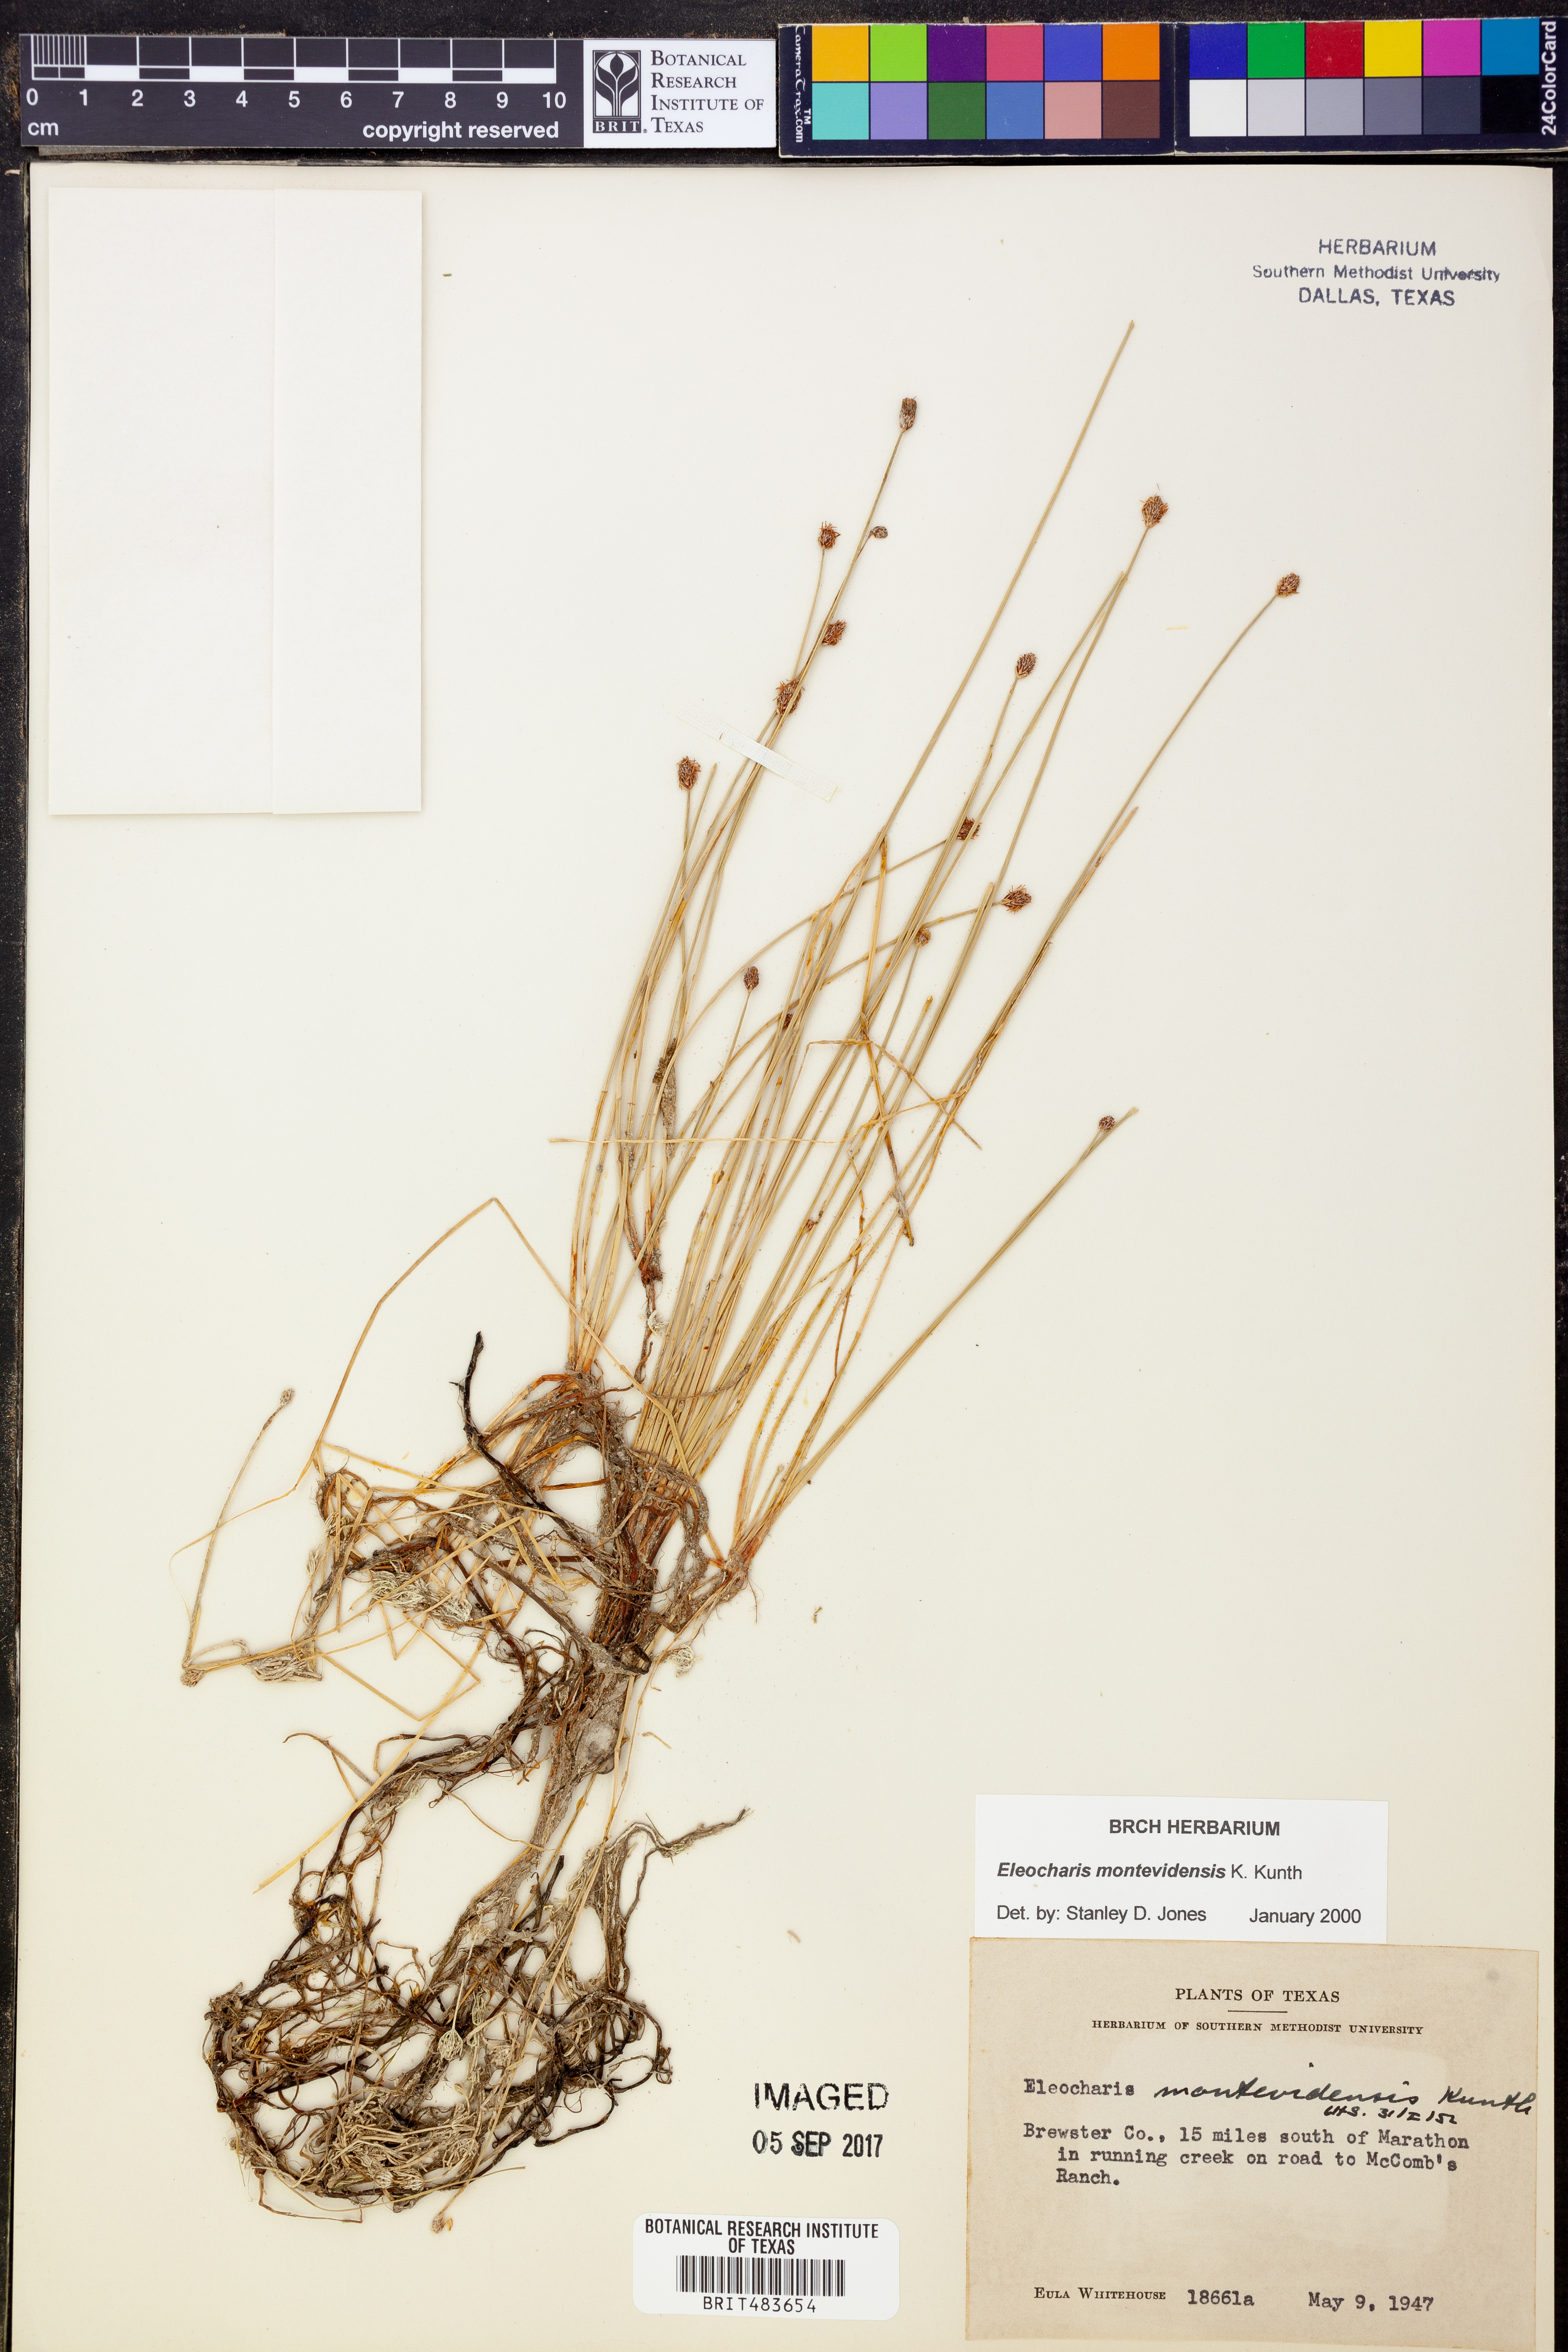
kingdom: Plantae
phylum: Tracheophyta
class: Liliopsida
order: Poales
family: Cyperaceae
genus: Eleocharis
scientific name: Eleocharis montevidensis
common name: Sand spike-rush
